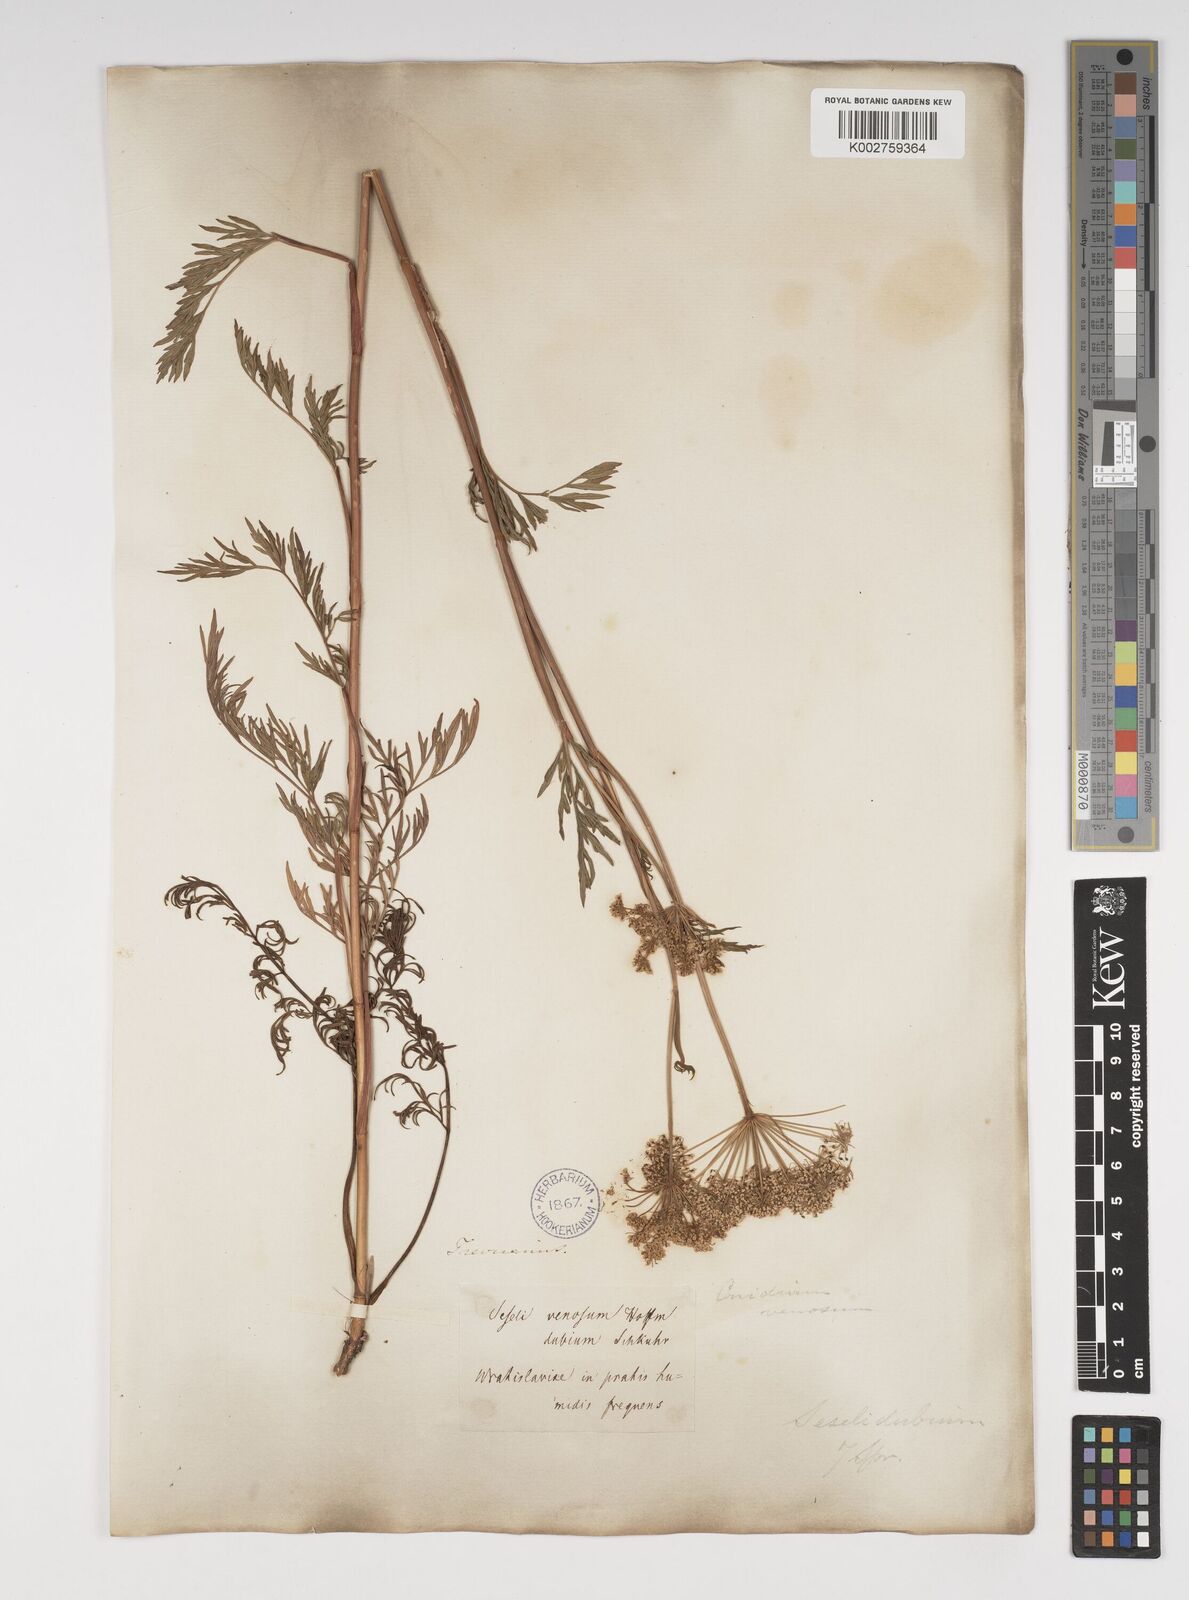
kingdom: Plantae
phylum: Tracheophyta
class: Magnoliopsida
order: Apiales
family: Apiaceae
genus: Kadenia
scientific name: Kadenia dubia
